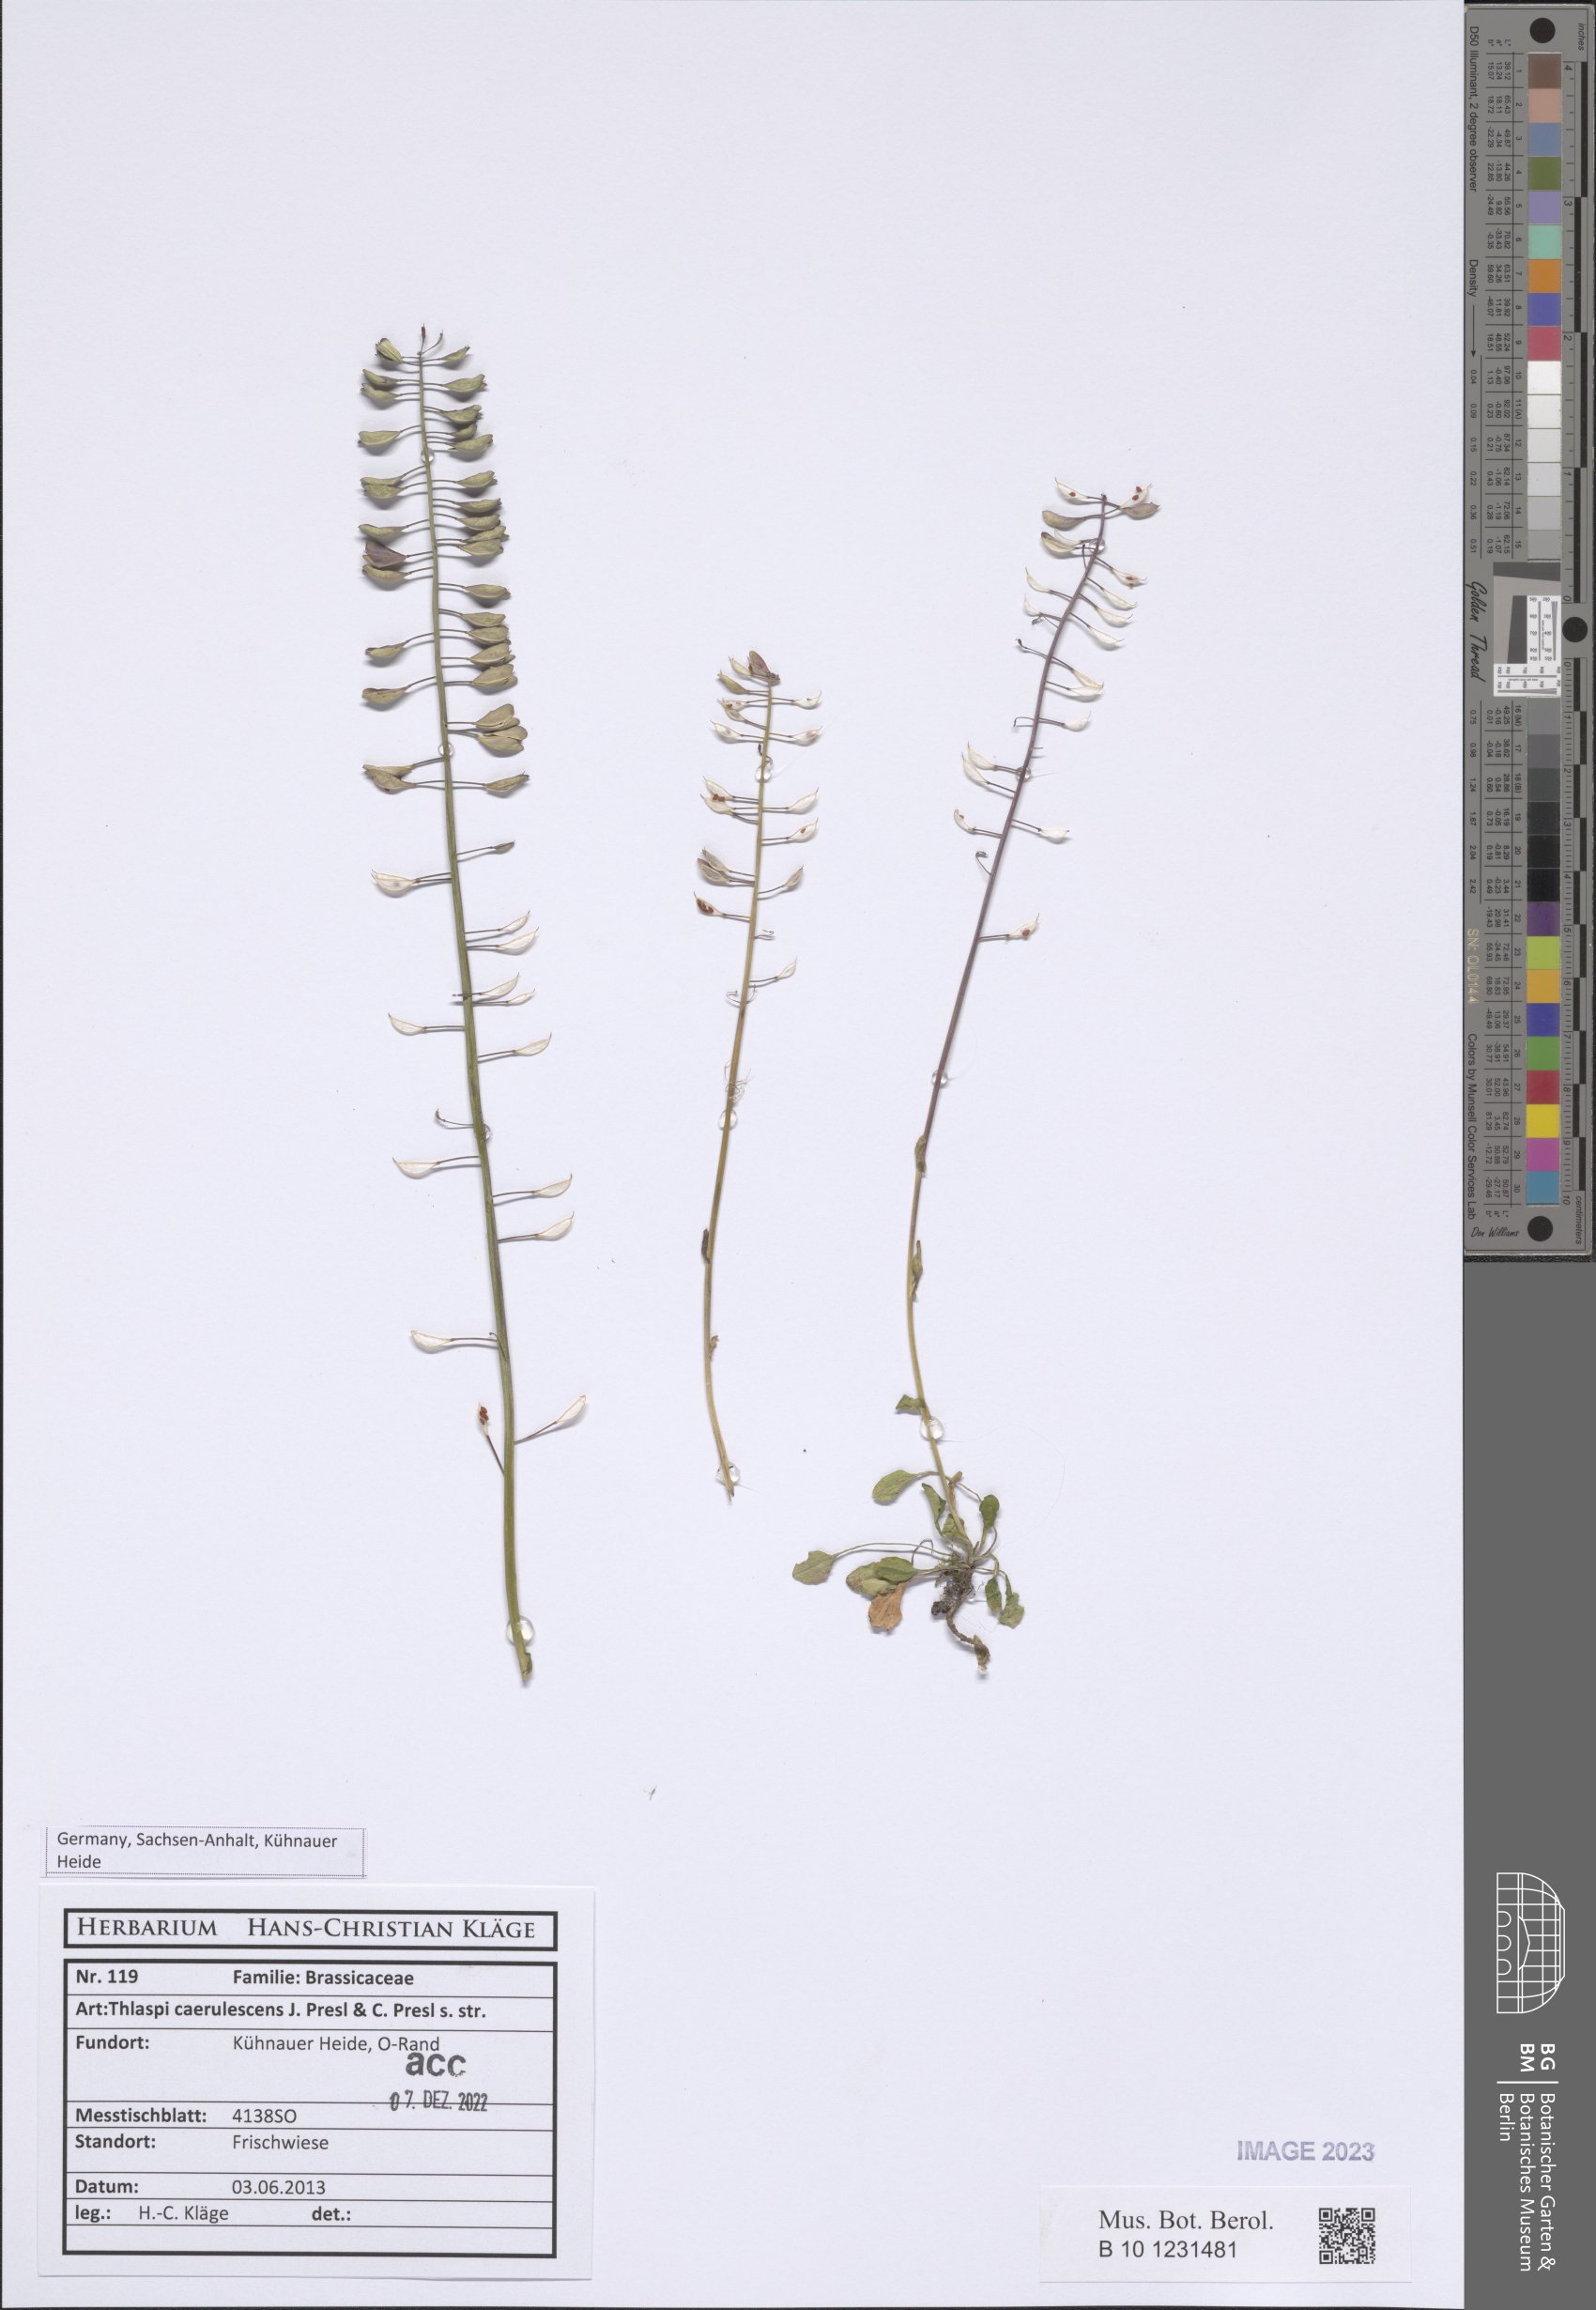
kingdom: Plantae
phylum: Tracheophyta
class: Magnoliopsida
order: Brassicales
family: Brassicaceae
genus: Noccaea
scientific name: Noccaea caerulescens
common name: Alpine pennycress
